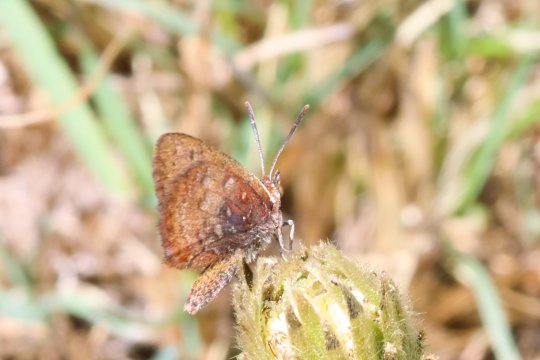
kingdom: Animalia
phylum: Arthropoda
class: Insecta
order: Lepidoptera
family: Lycaenidae
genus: Aloeides
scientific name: Aloeides
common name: Coppers
